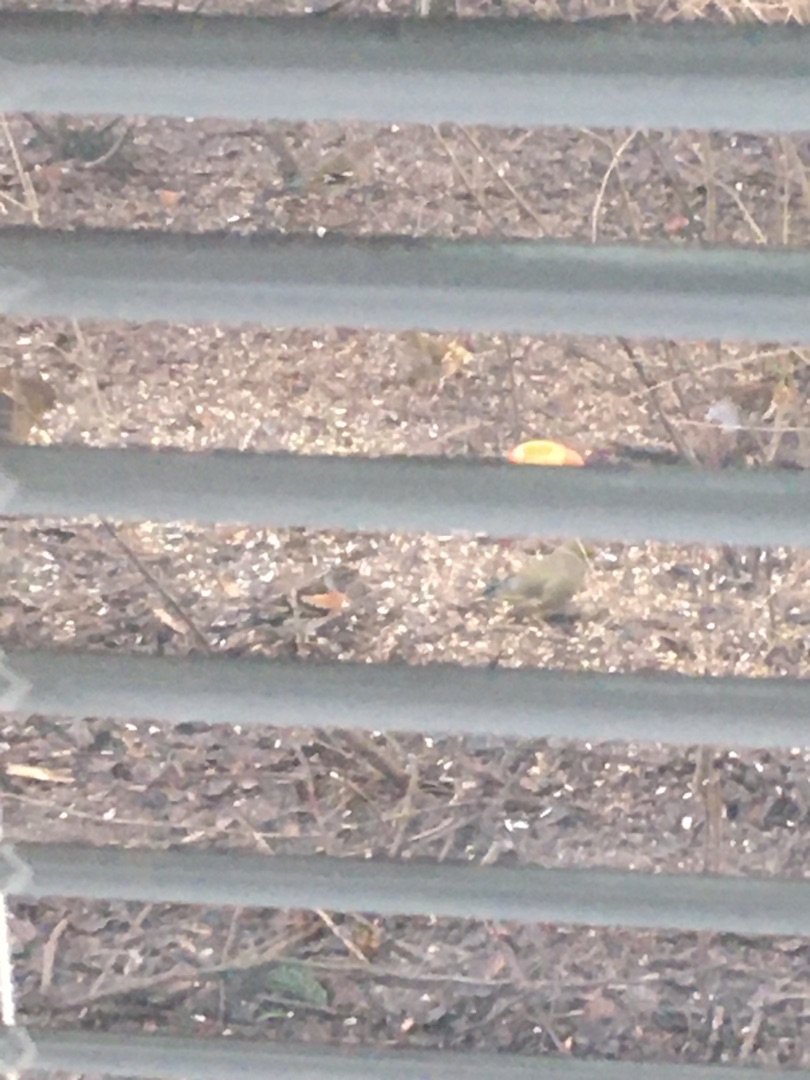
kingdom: Animalia
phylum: Chordata
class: Aves
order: Passeriformes
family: Fringillidae
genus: Fringilla
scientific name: Fringilla montifringilla
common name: Kvækerfinke
